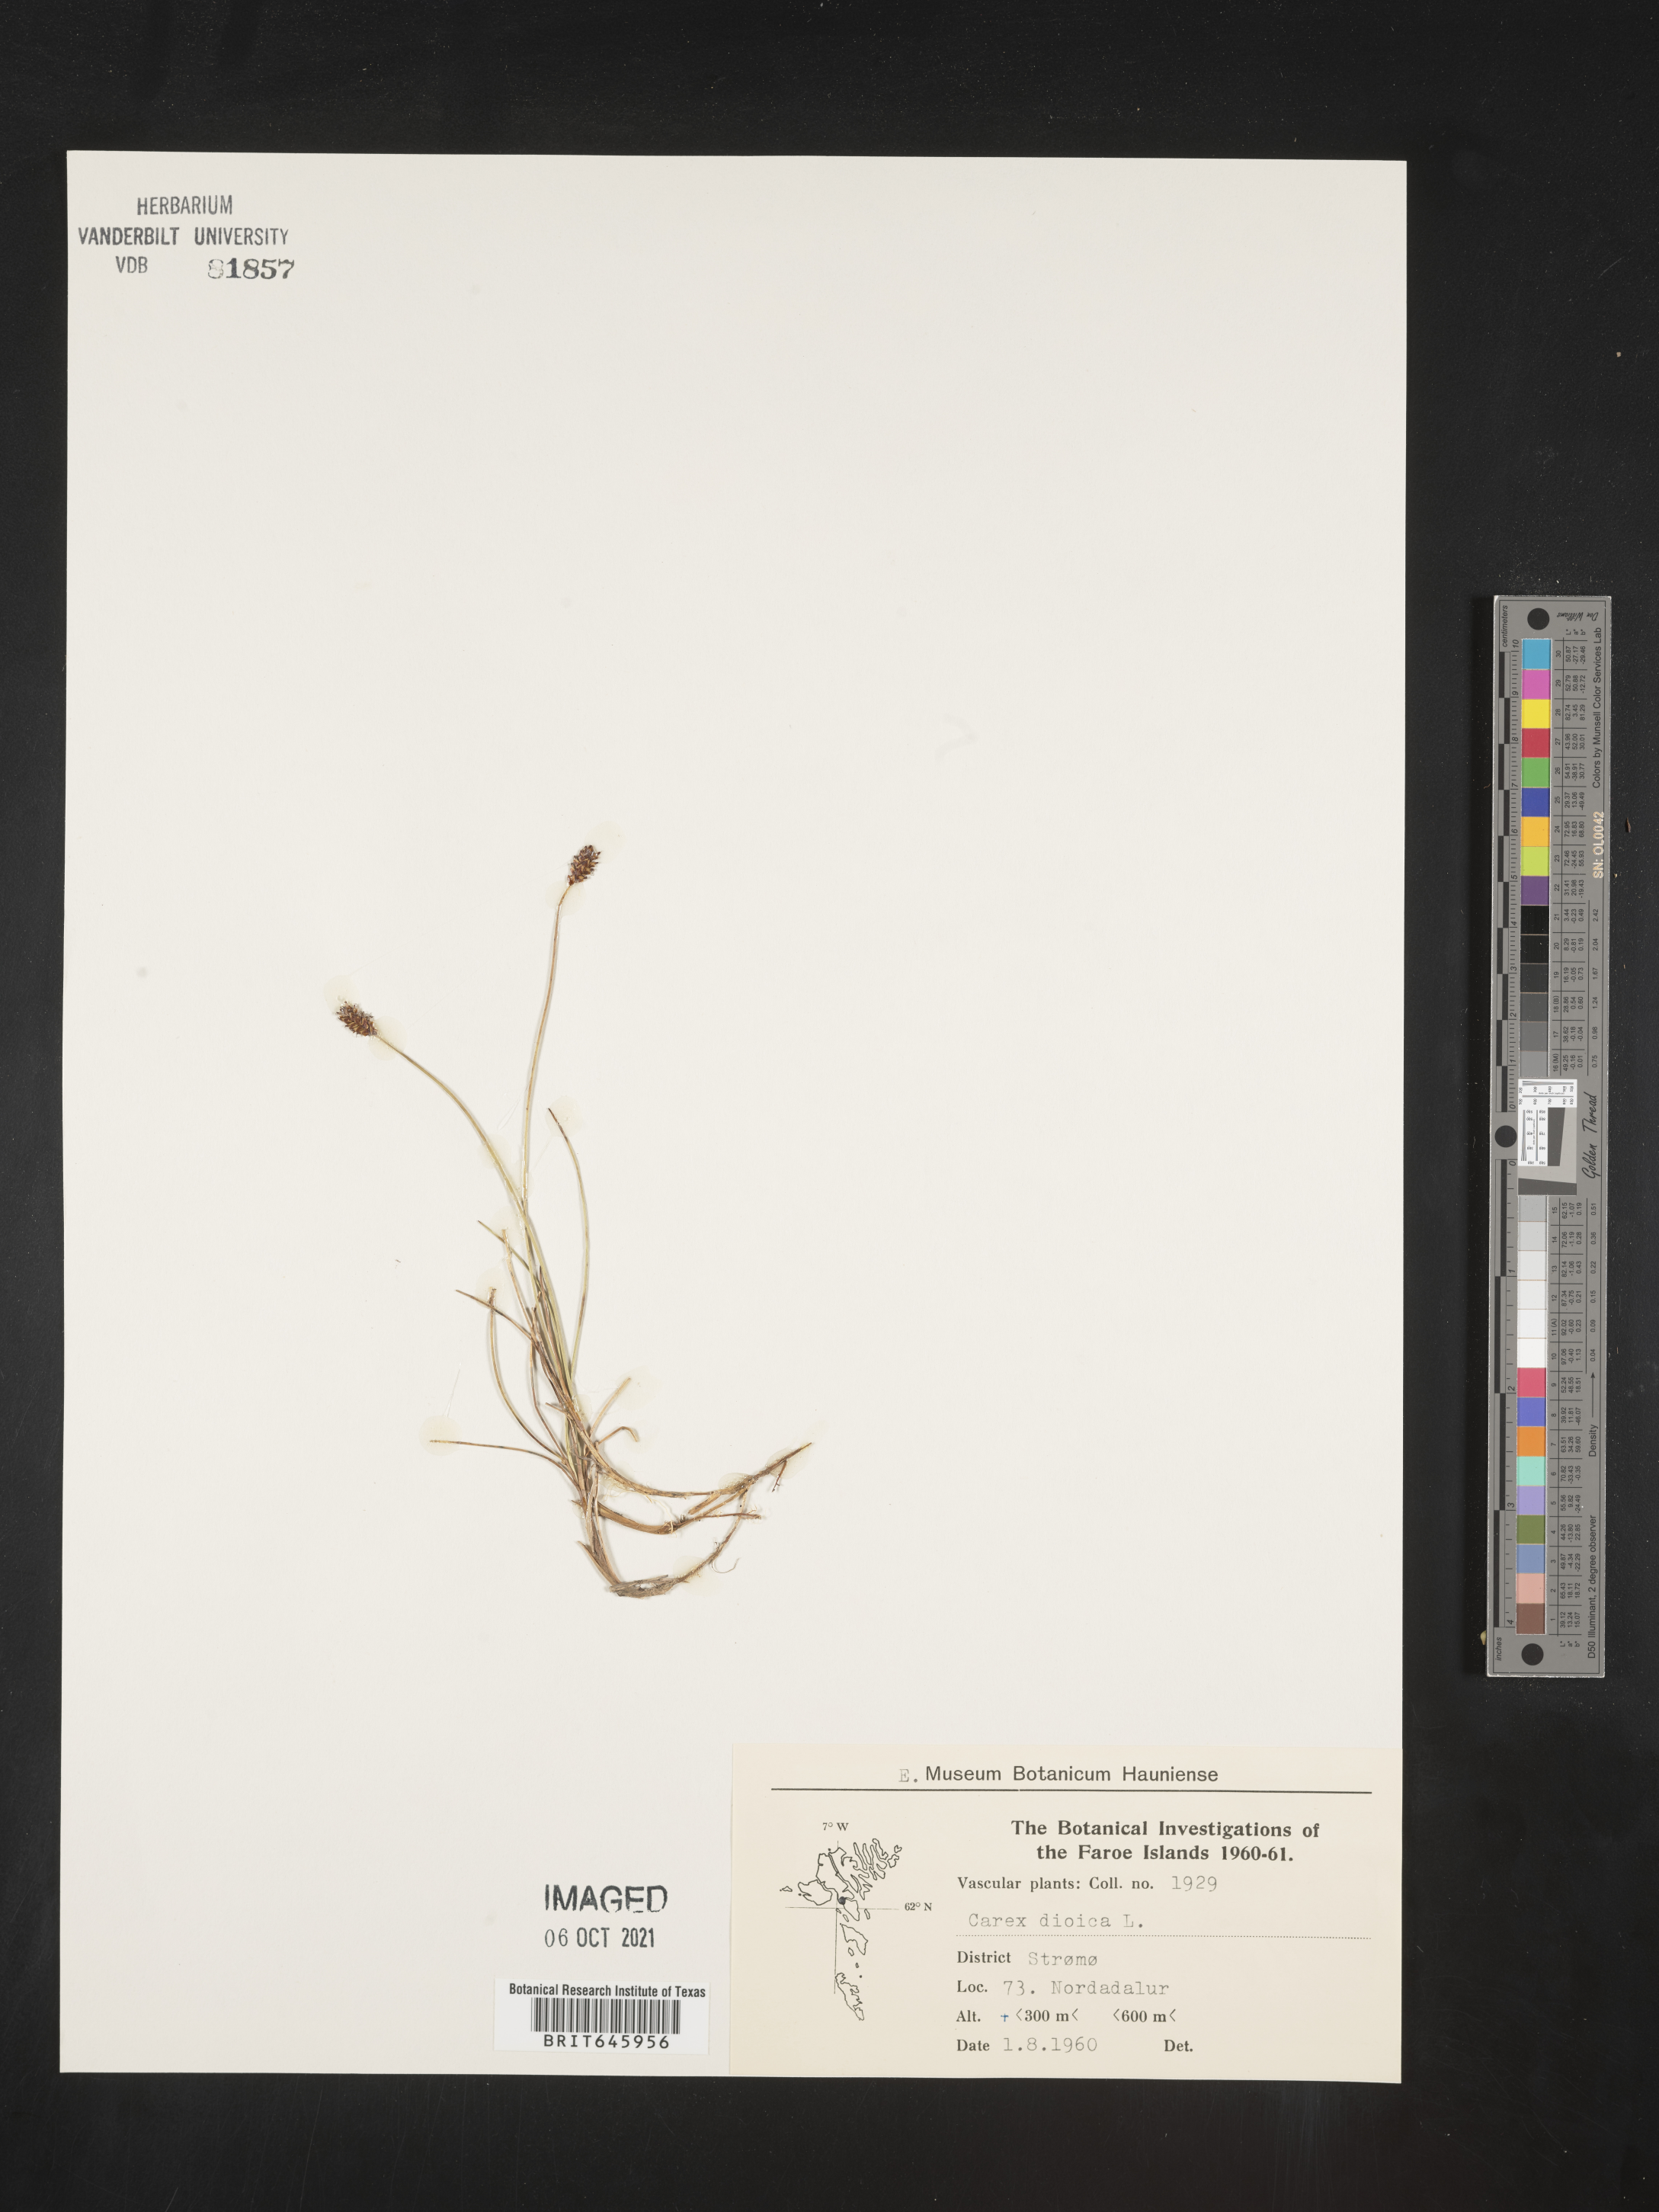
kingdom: Plantae
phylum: Tracheophyta
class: Liliopsida
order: Poales
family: Cyperaceae
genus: Carex
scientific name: Carex dioica
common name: Dioecious sedge
